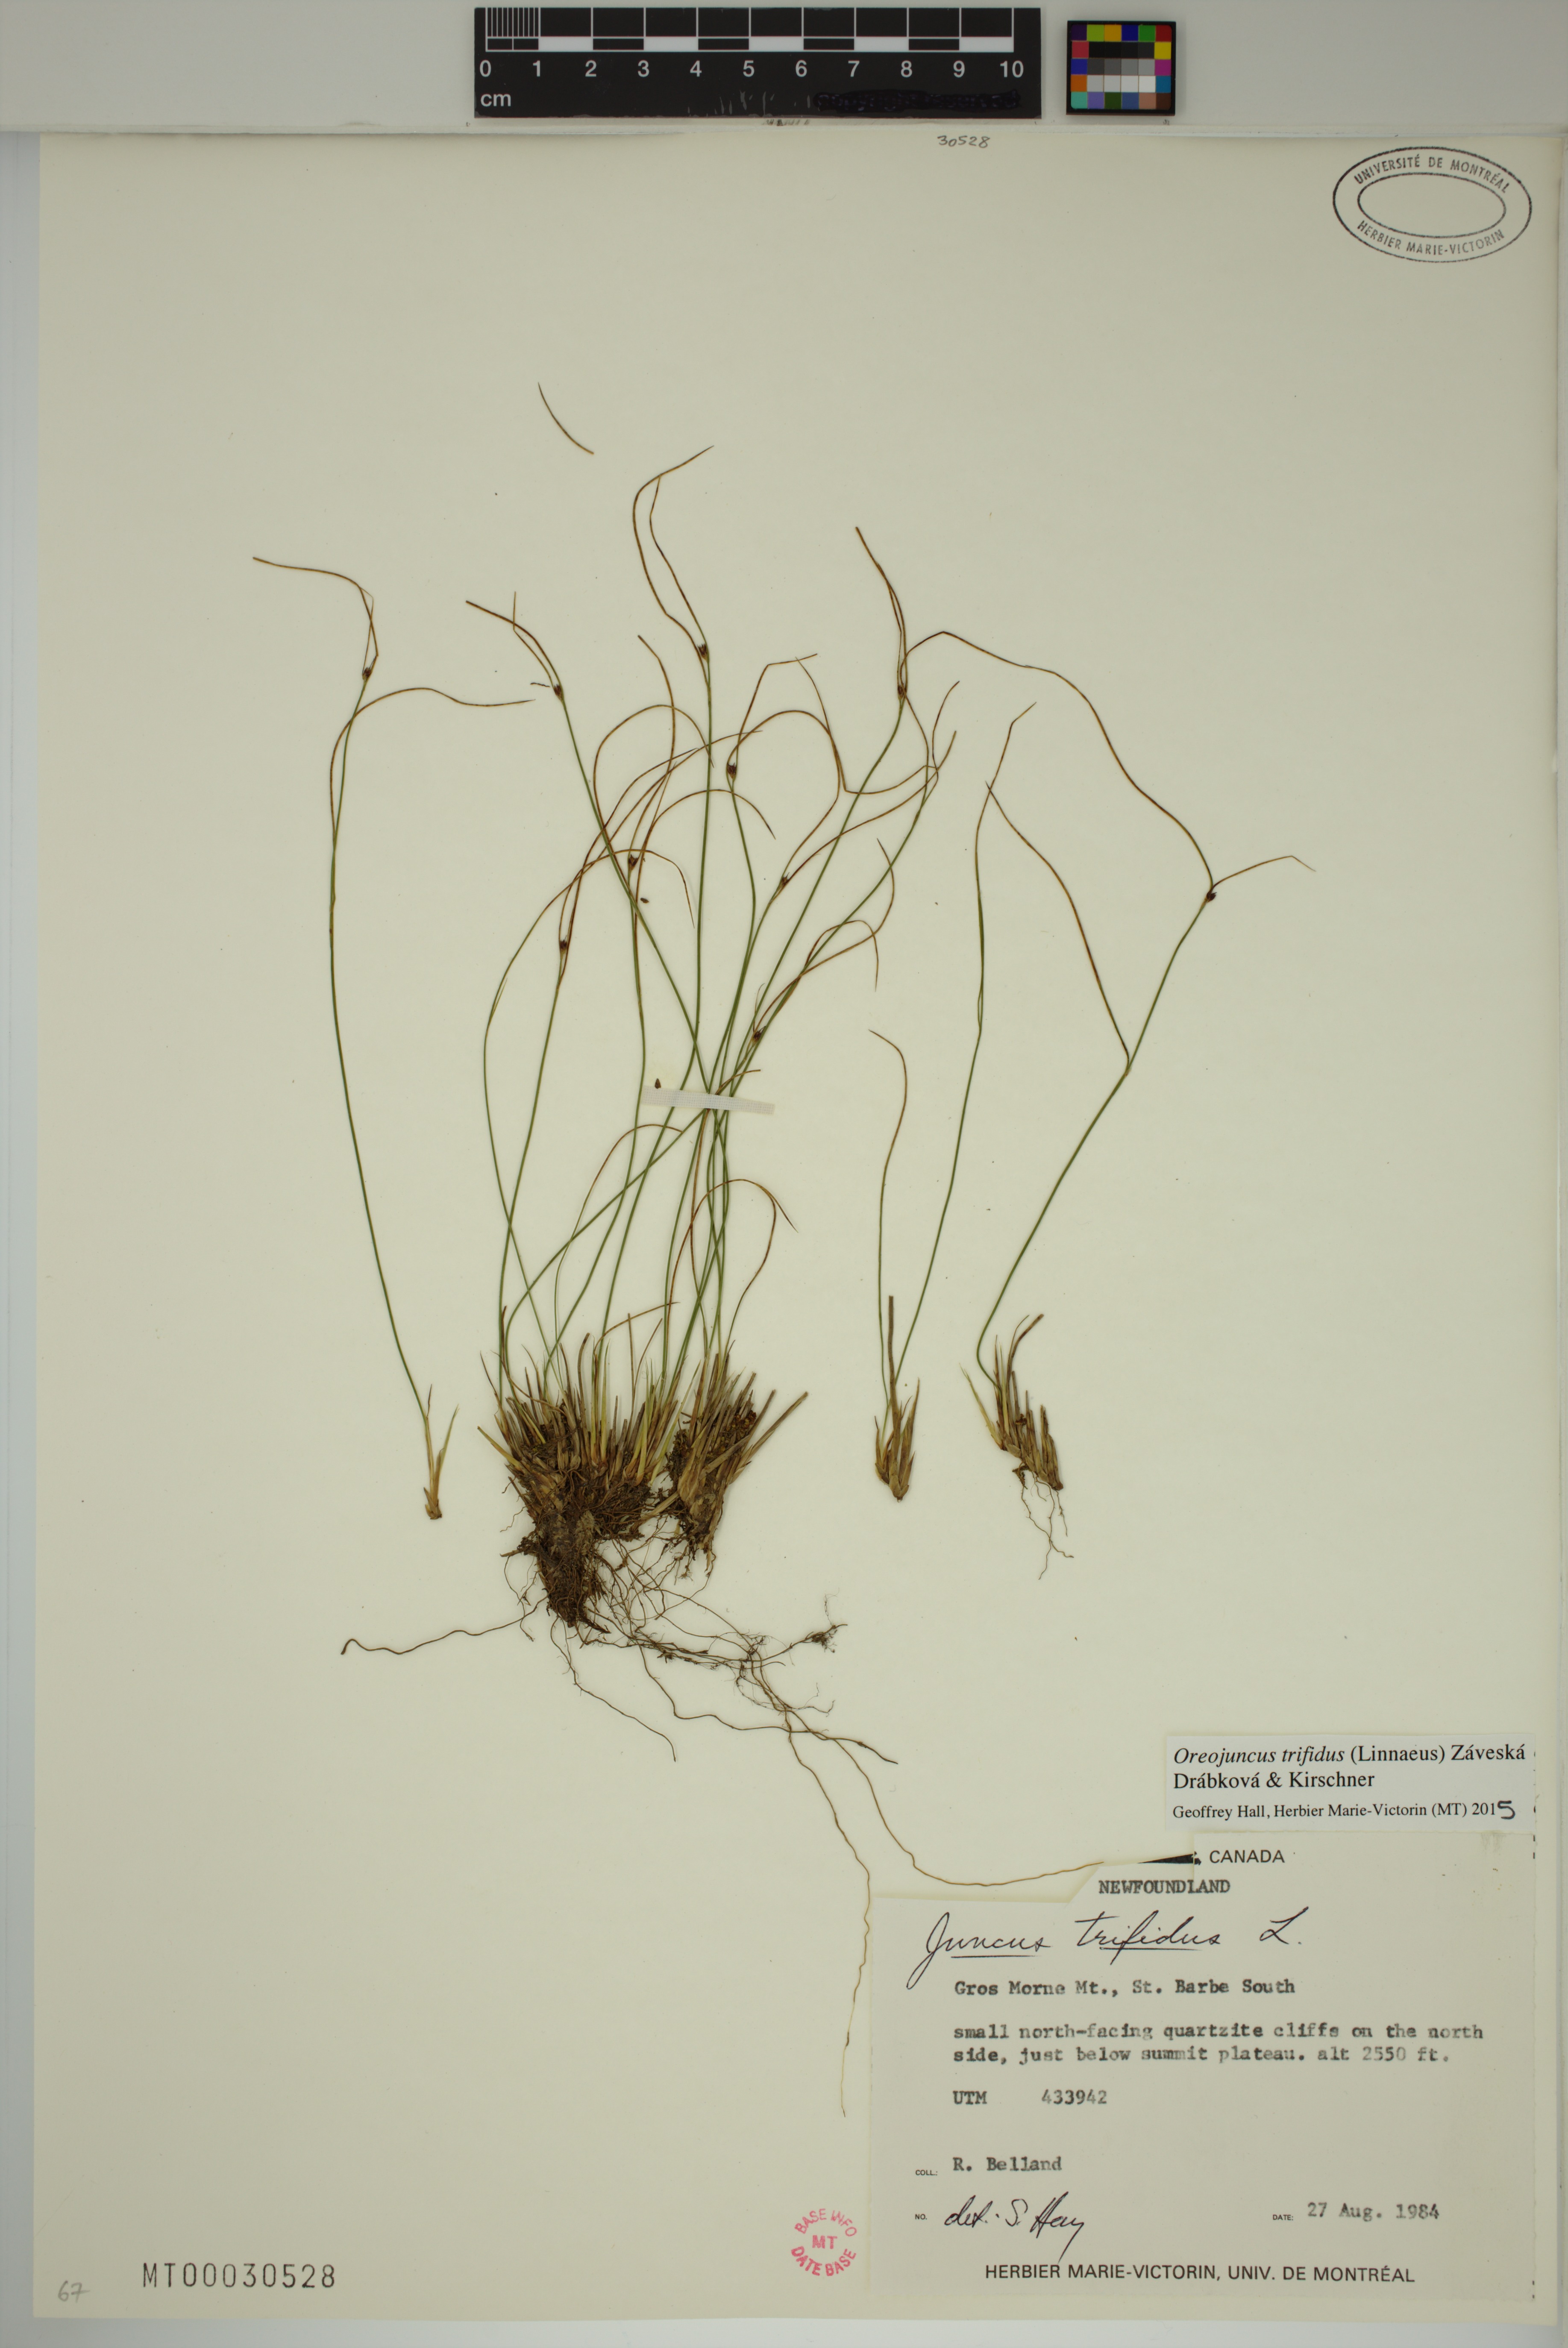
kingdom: Plantae
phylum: Tracheophyta
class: Liliopsida
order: Poales
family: Juncaceae
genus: Oreojuncus
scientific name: Oreojuncus trifidus
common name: Highland rush
